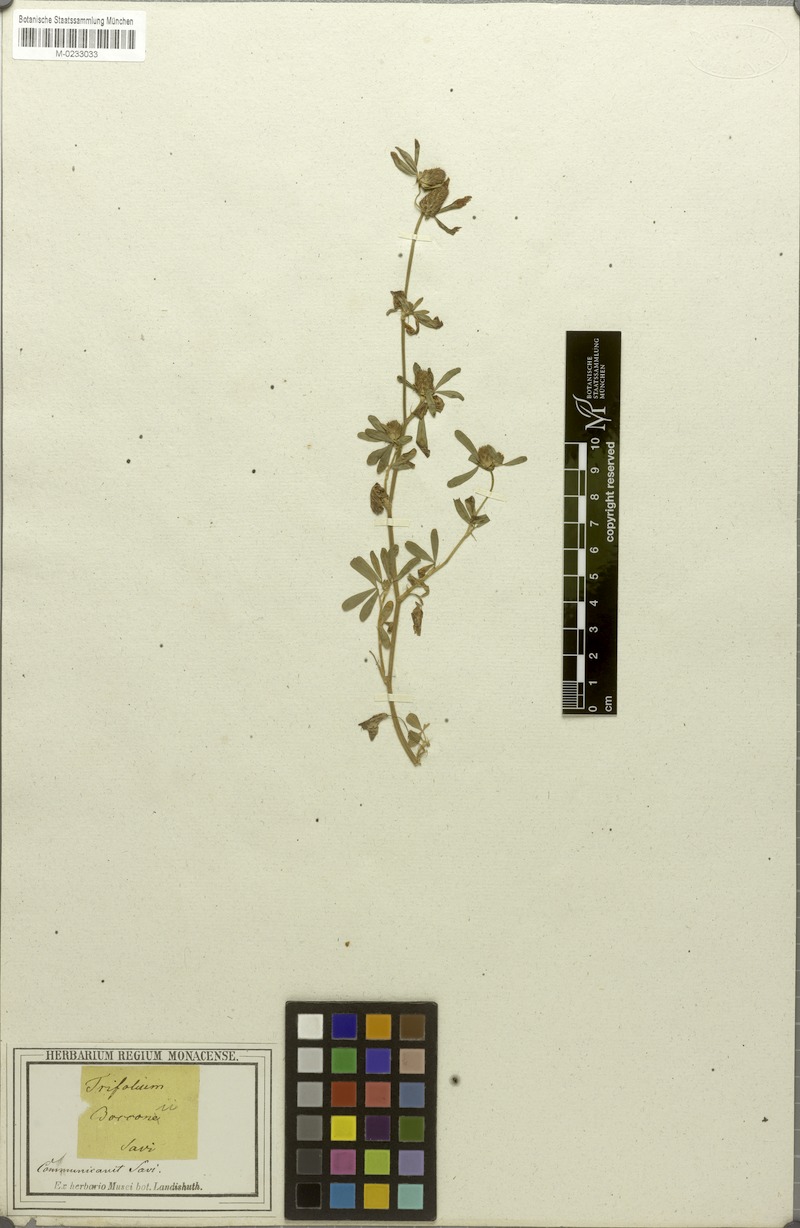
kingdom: Plantae
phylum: Tracheophyta
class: Magnoliopsida
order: Fabales
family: Fabaceae
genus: Trifolium
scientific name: Trifolium bocconei
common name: Twin-headed clover
